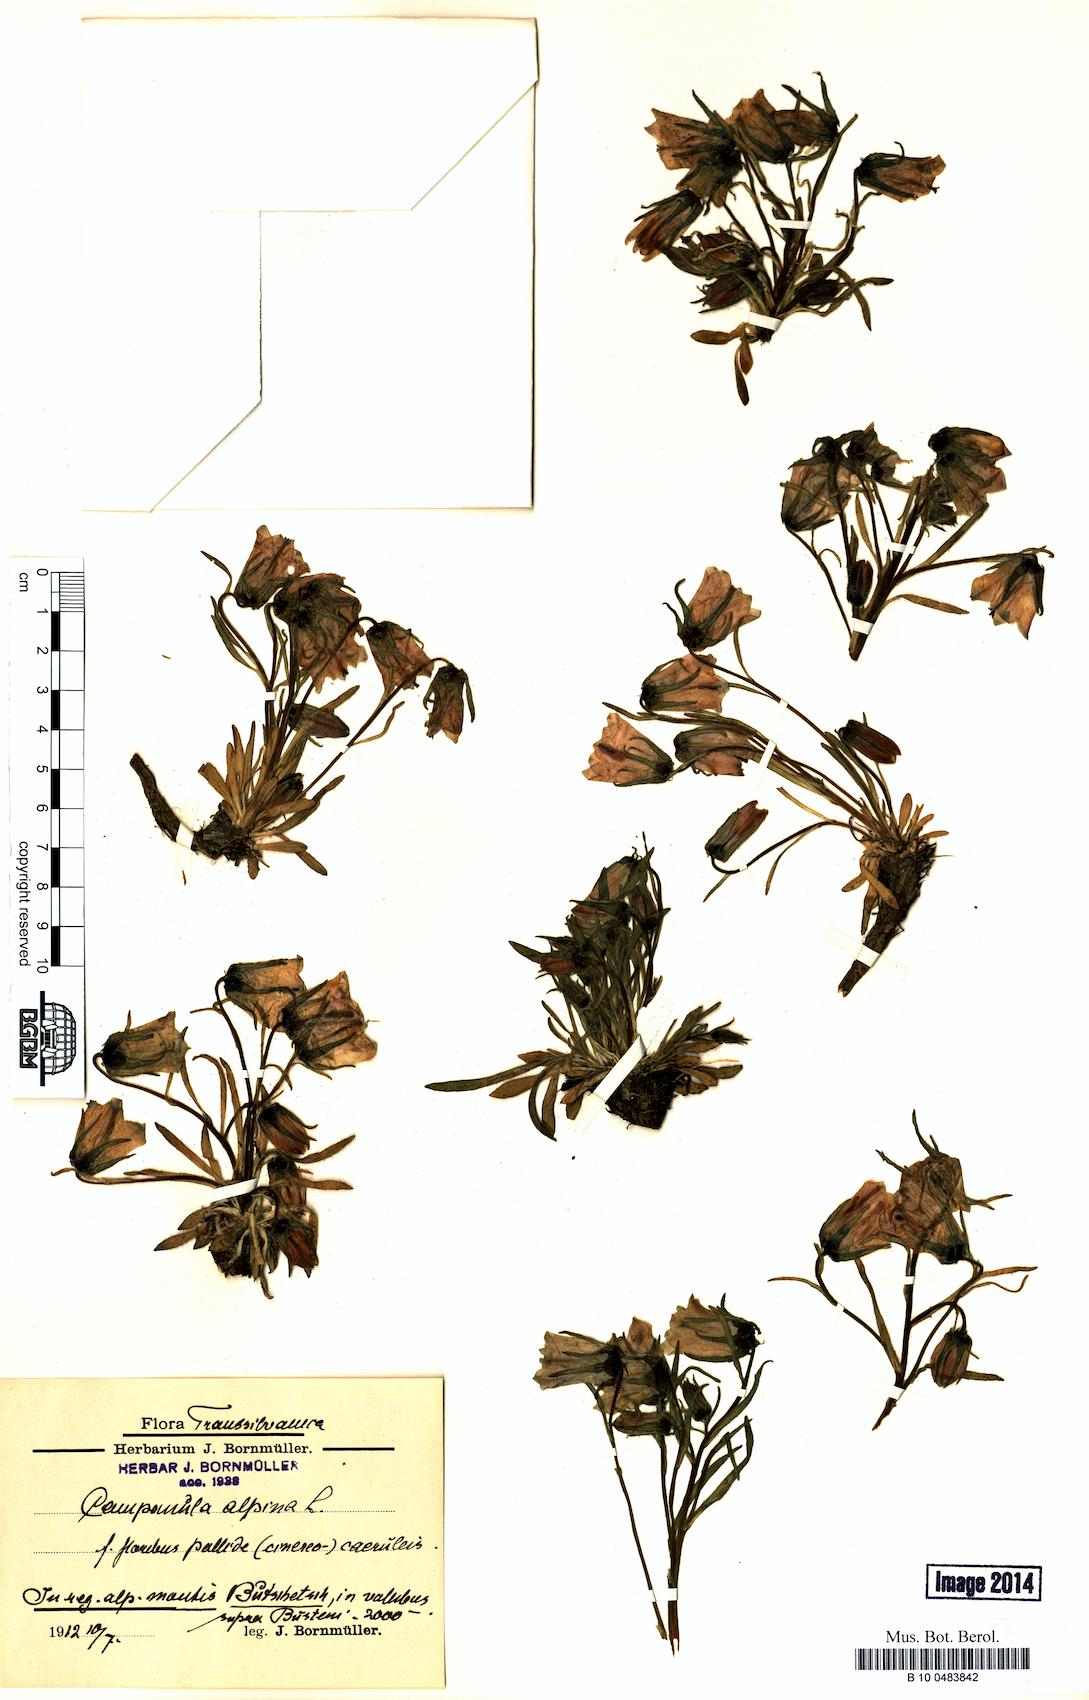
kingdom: Plantae
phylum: Tracheophyta
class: Magnoliopsida
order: Asterales
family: Campanulaceae
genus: Campanula
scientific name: Campanula alpina
